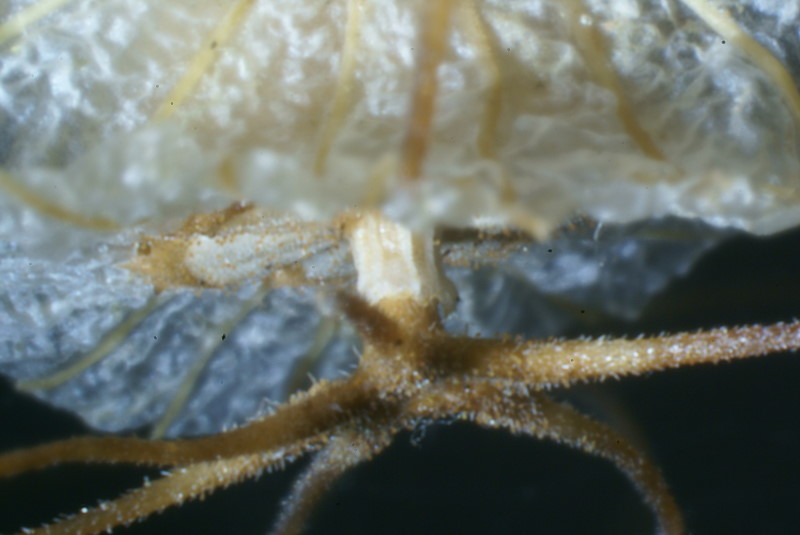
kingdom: Plantae
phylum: Tracheophyta
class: Magnoliopsida
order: Dipsacales
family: Caprifoliaceae
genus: Scabiosa
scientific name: Scabiosa
